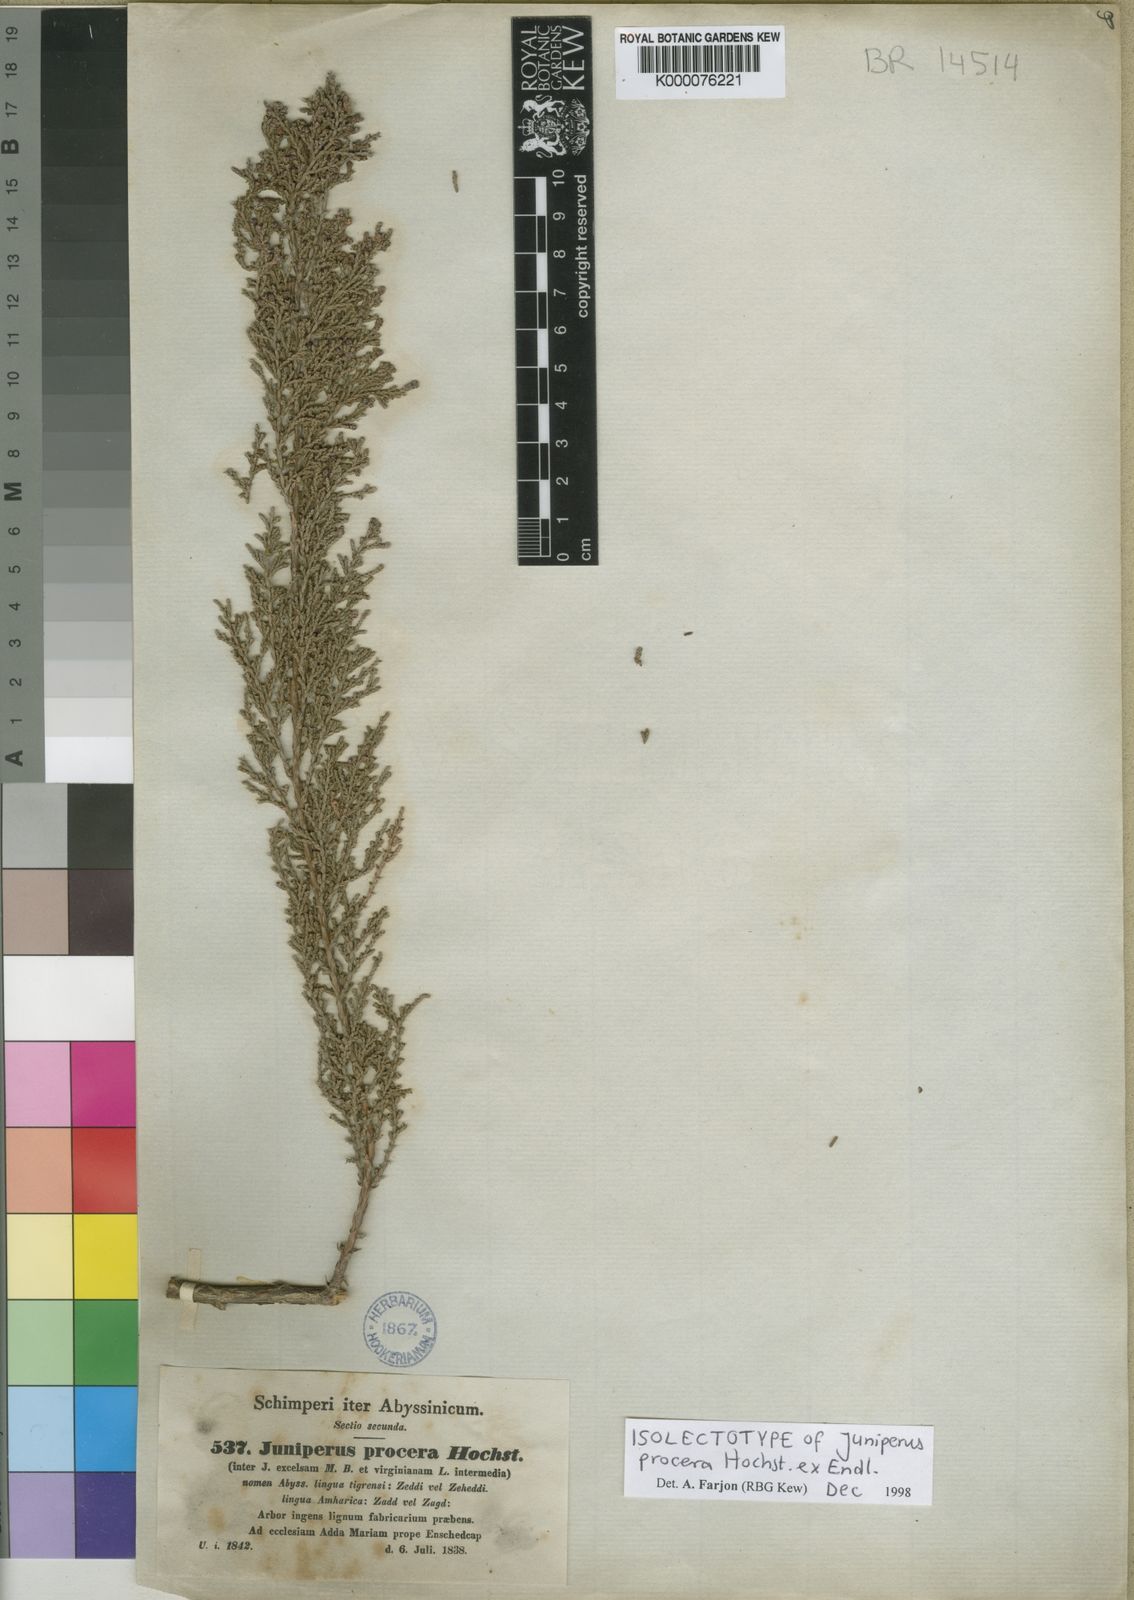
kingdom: Plantae
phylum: Tracheophyta
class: Pinopsida
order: Pinales
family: Cupressaceae
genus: Juniperus
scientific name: Juniperus procera
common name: African juniper
